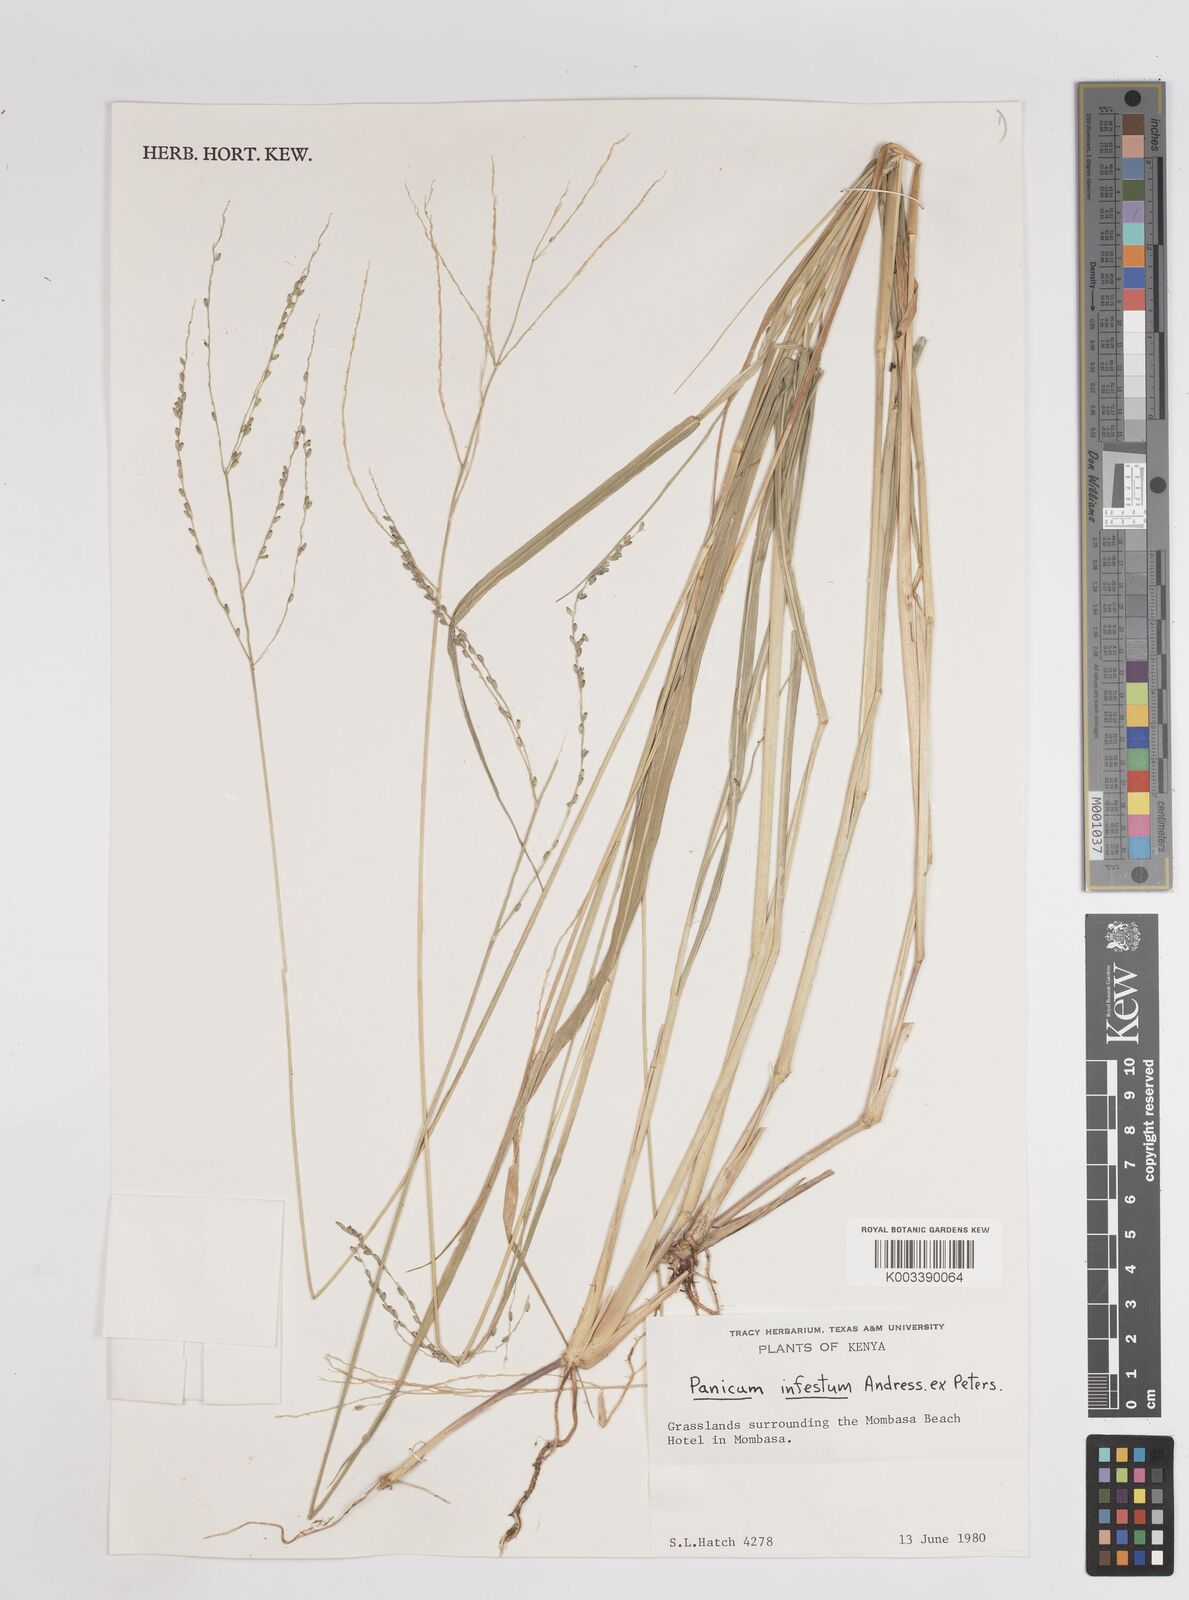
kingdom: Plantae
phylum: Tracheophyta
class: Liliopsida
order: Poales
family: Poaceae
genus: Megathyrsus
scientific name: Megathyrsus infestus
